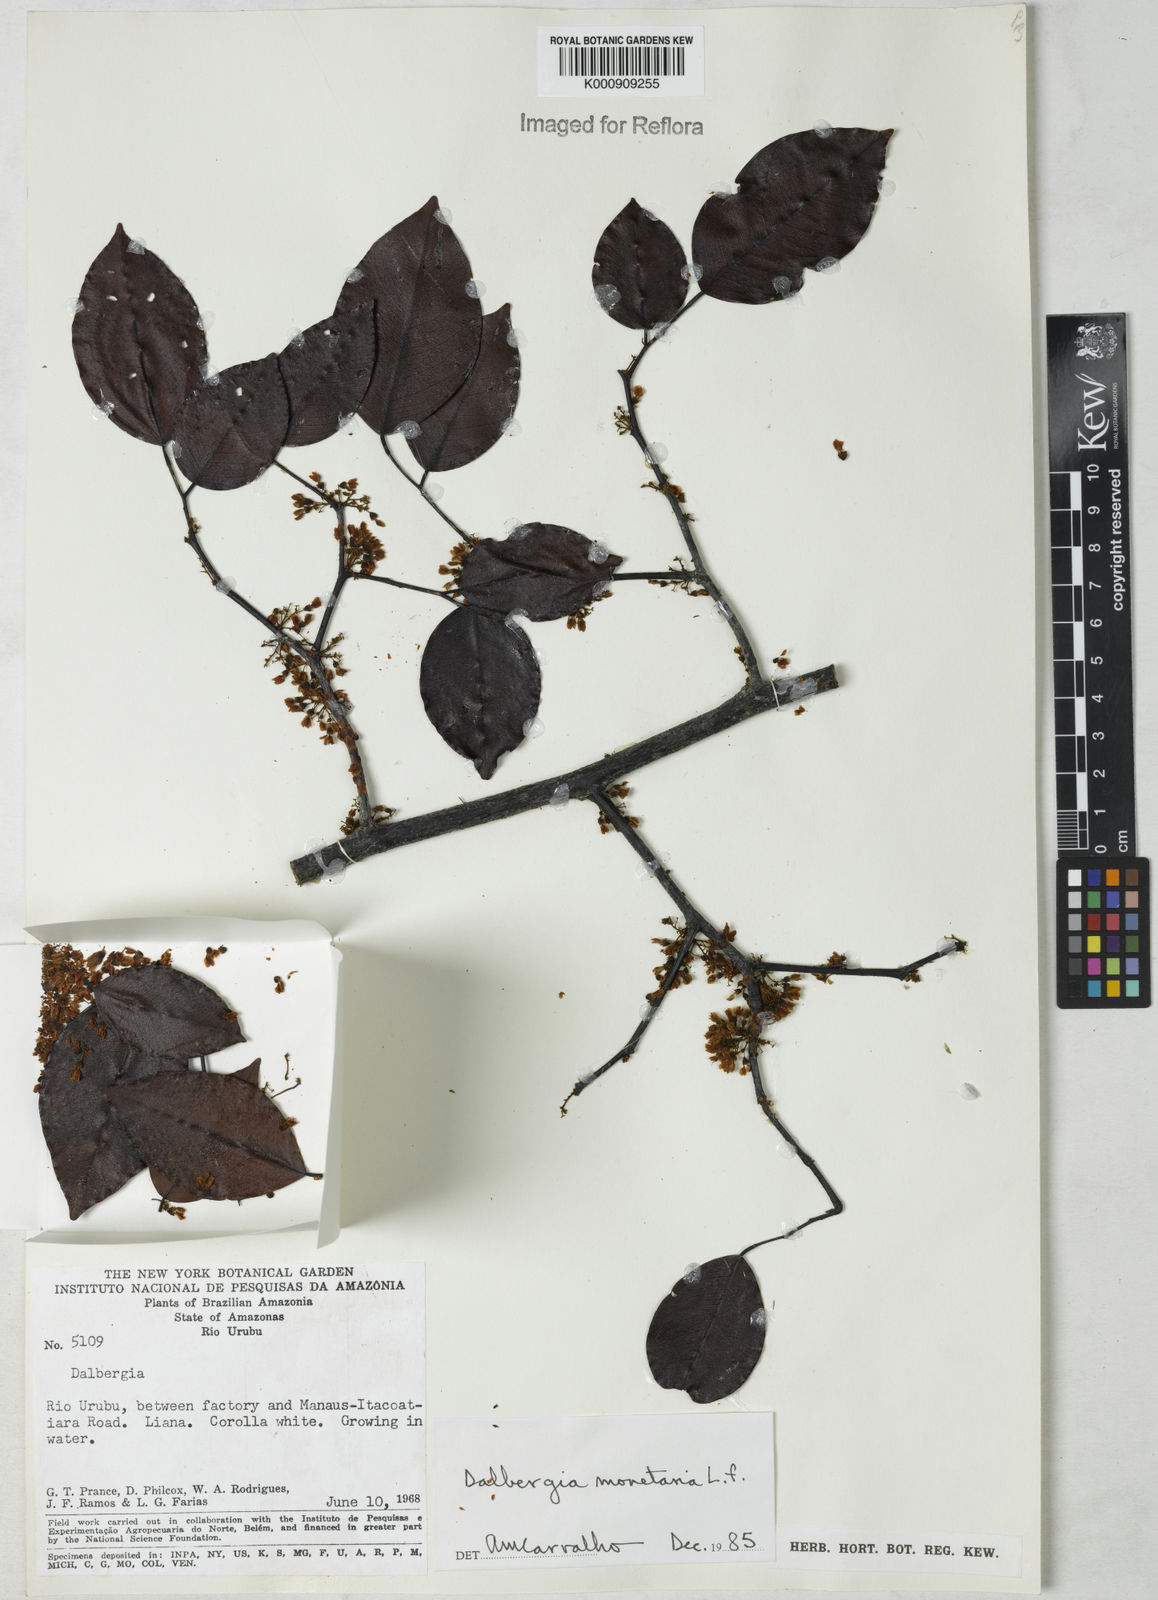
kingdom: Plantae
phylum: Tracheophyta
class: Magnoliopsida
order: Fabales
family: Fabaceae
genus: Dalbergia
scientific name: Dalbergia ovalis
